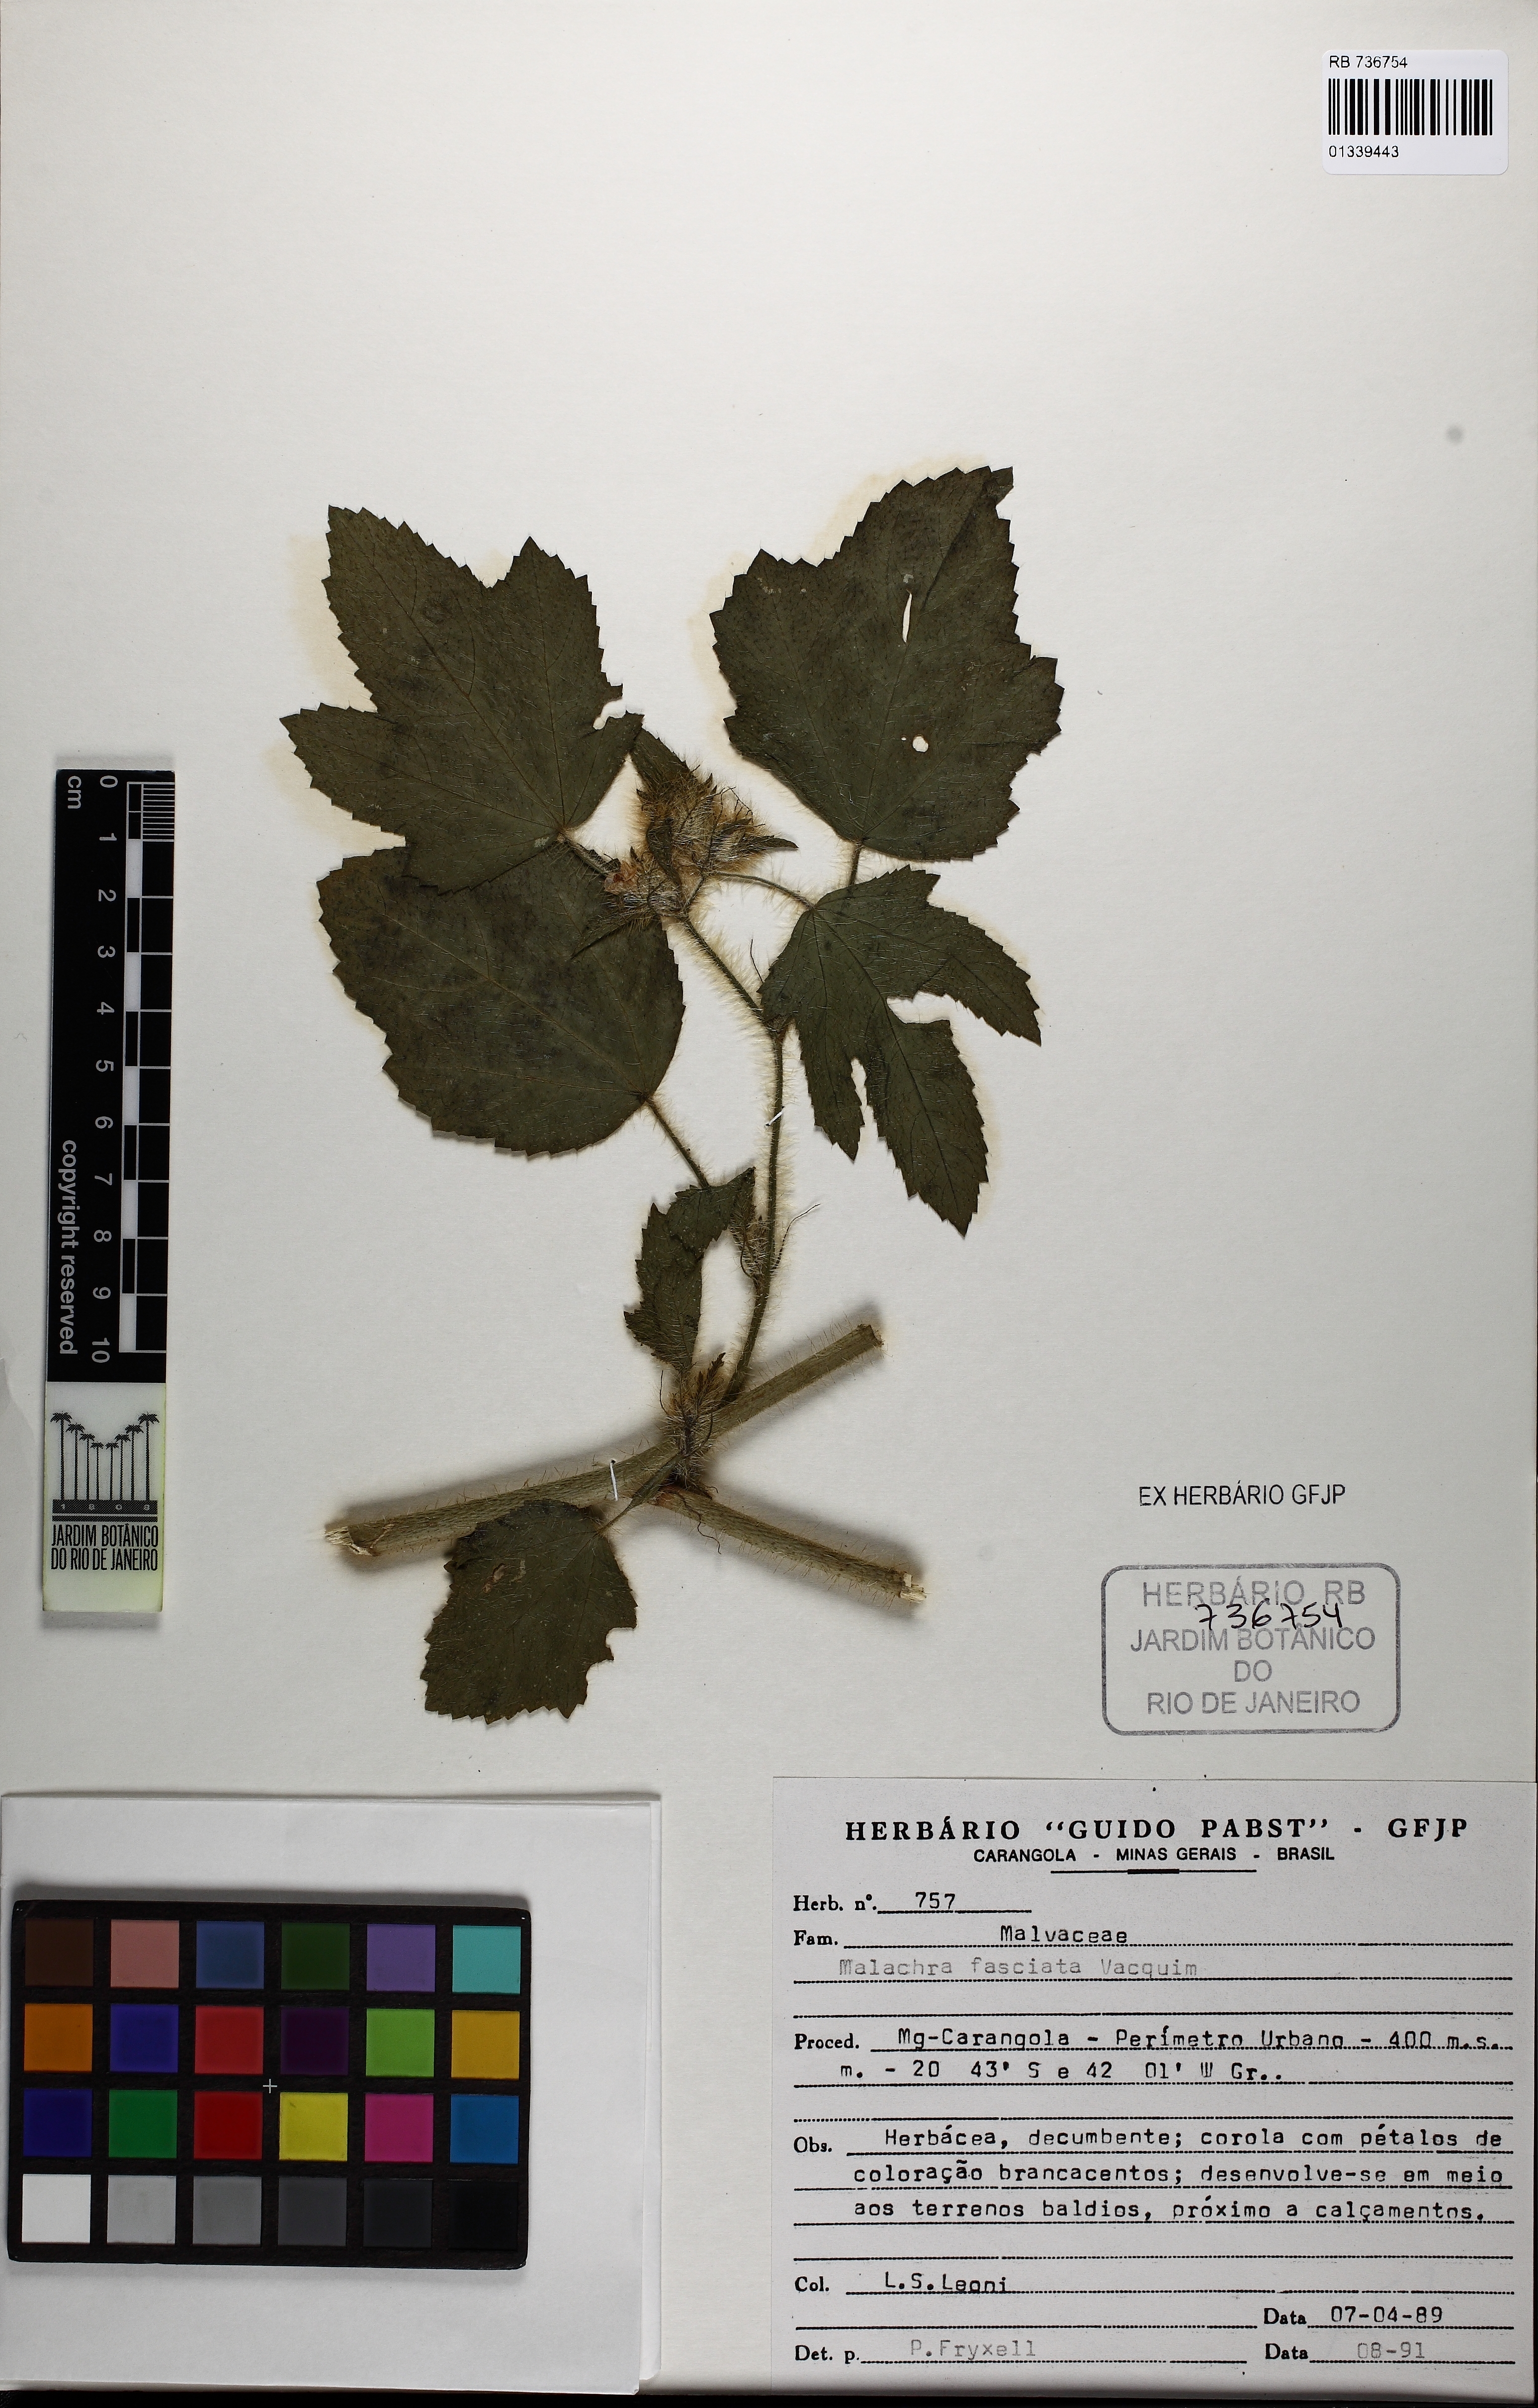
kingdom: Plantae
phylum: Tracheophyta
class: Magnoliopsida
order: Malvales
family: Malvaceae
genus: Malachra
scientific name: Malachra fasciata
